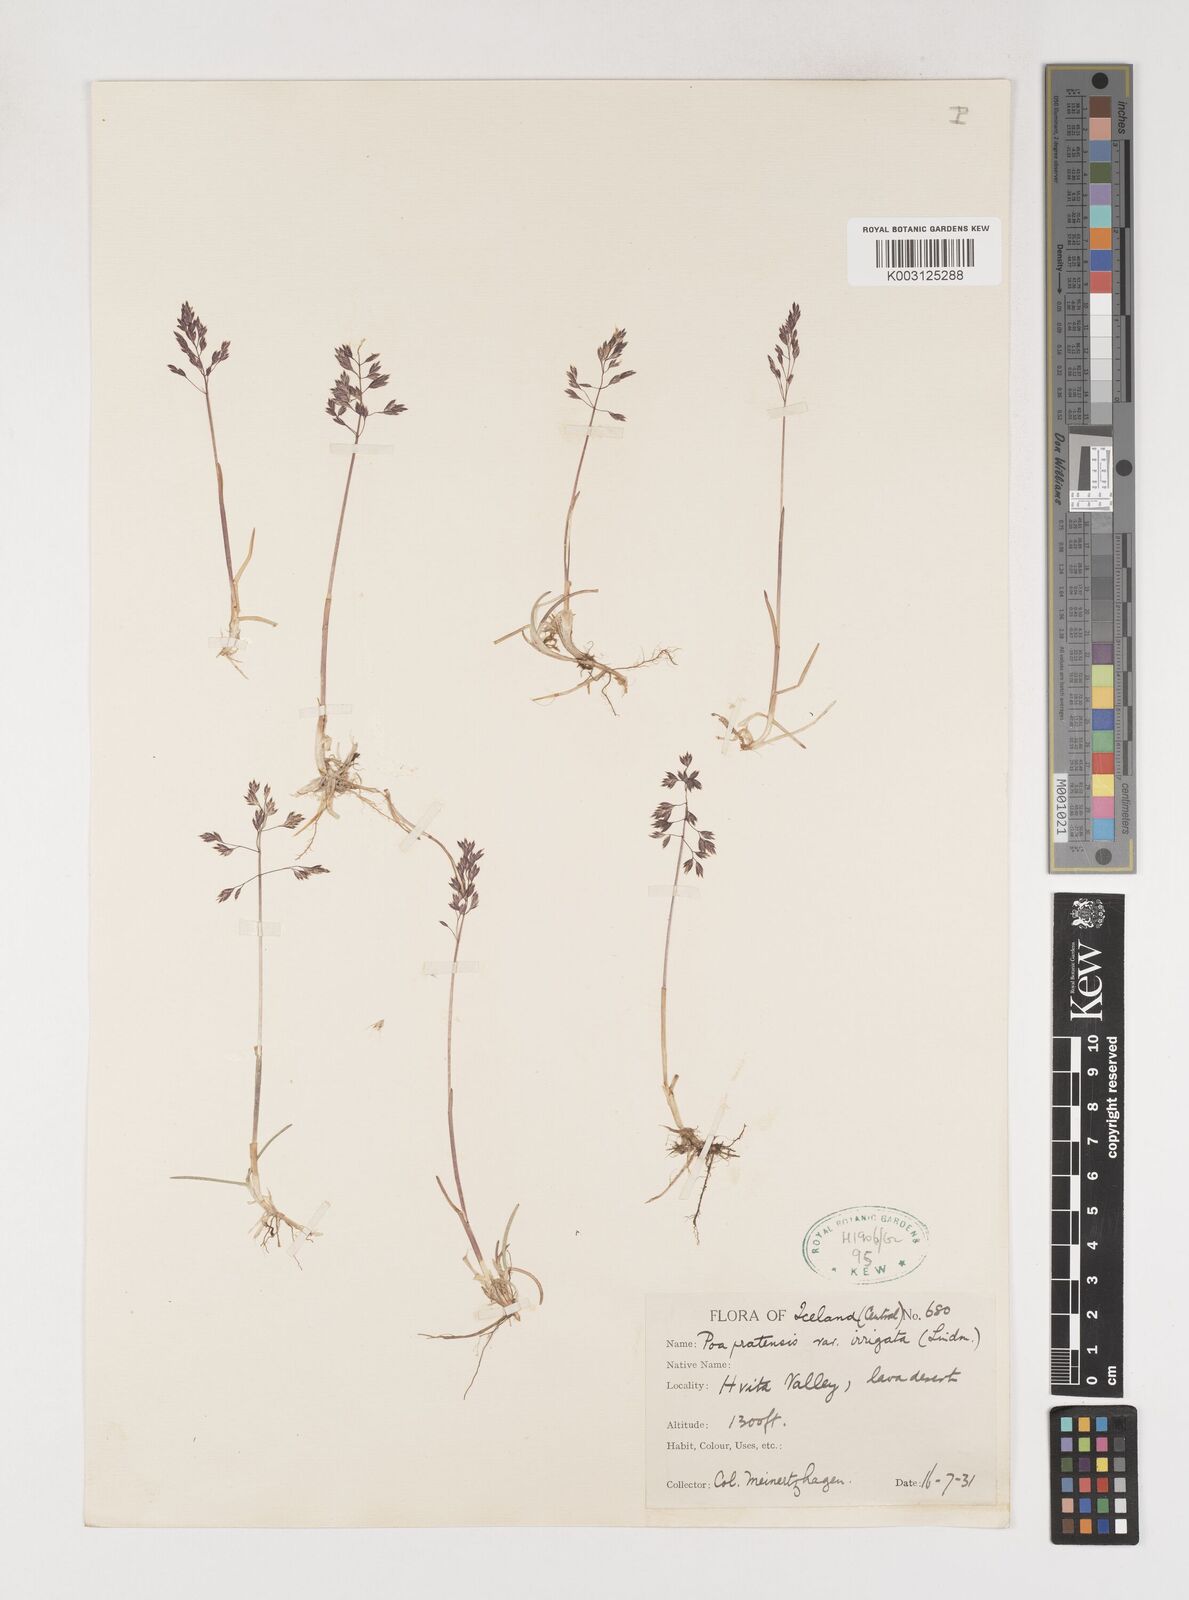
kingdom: Plantae
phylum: Tracheophyta
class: Liliopsida
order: Poales
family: Poaceae
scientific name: Poaceae
